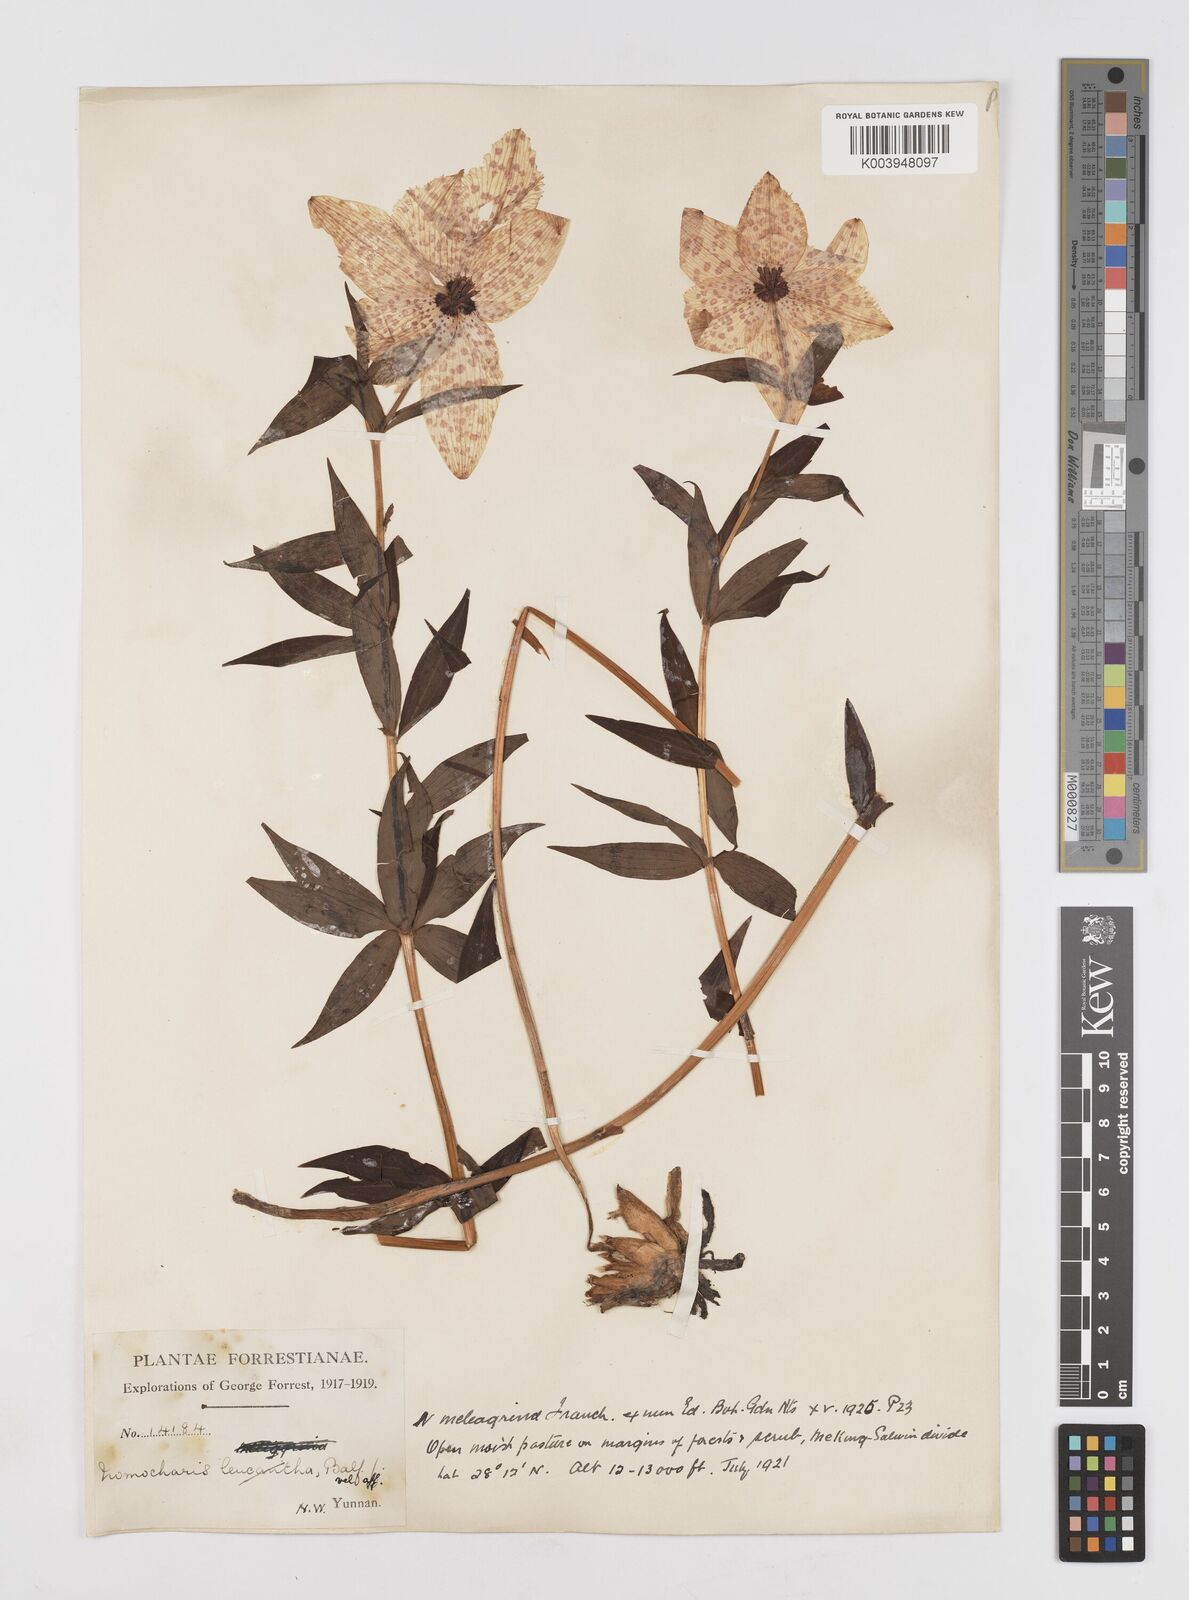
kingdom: Plantae
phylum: Tracheophyta
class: Liliopsida
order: Liliales
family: Liliaceae
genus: Lilium
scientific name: Lilium meleagrina
